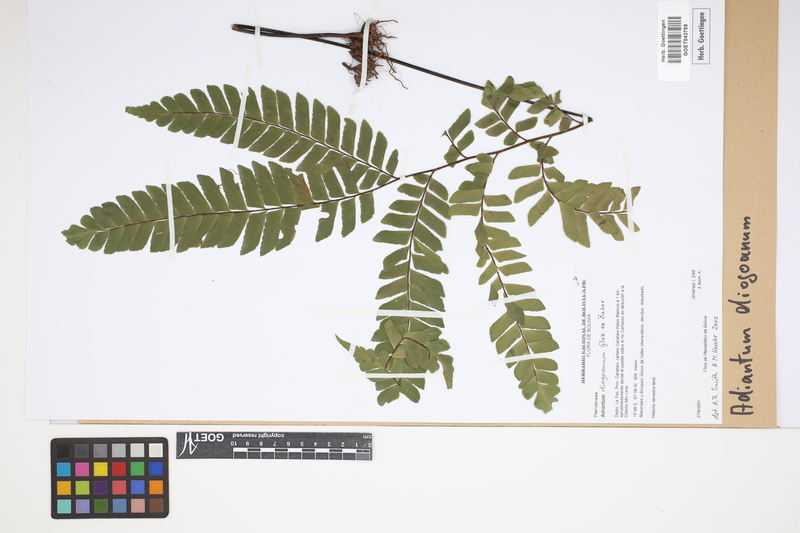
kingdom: Plantae
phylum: Tracheophyta
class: Polypodiopsida
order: Polypodiales
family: Pteridaceae
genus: Adiantum
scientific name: Adiantum diogoanum
